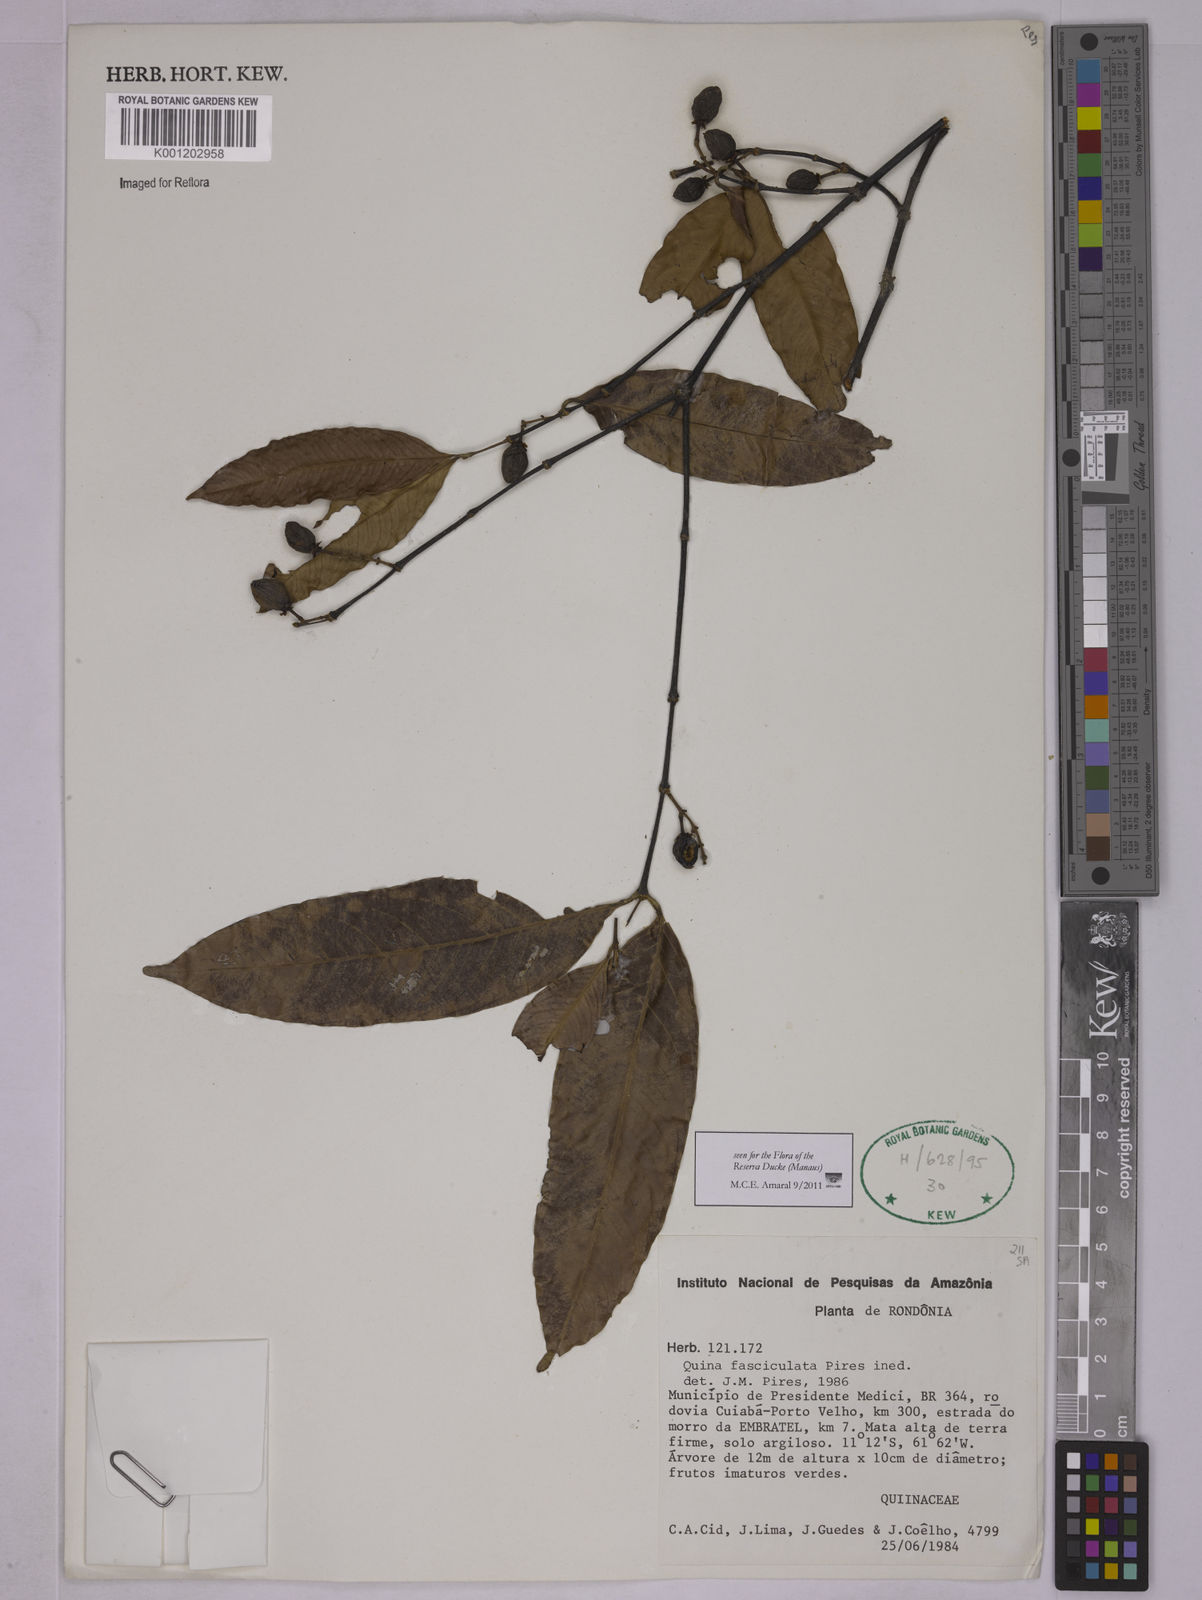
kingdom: Plantae
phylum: Tracheophyta
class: Magnoliopsida
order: Malpighiales
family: Quiinaceae
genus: Quiina
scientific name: Quiina
